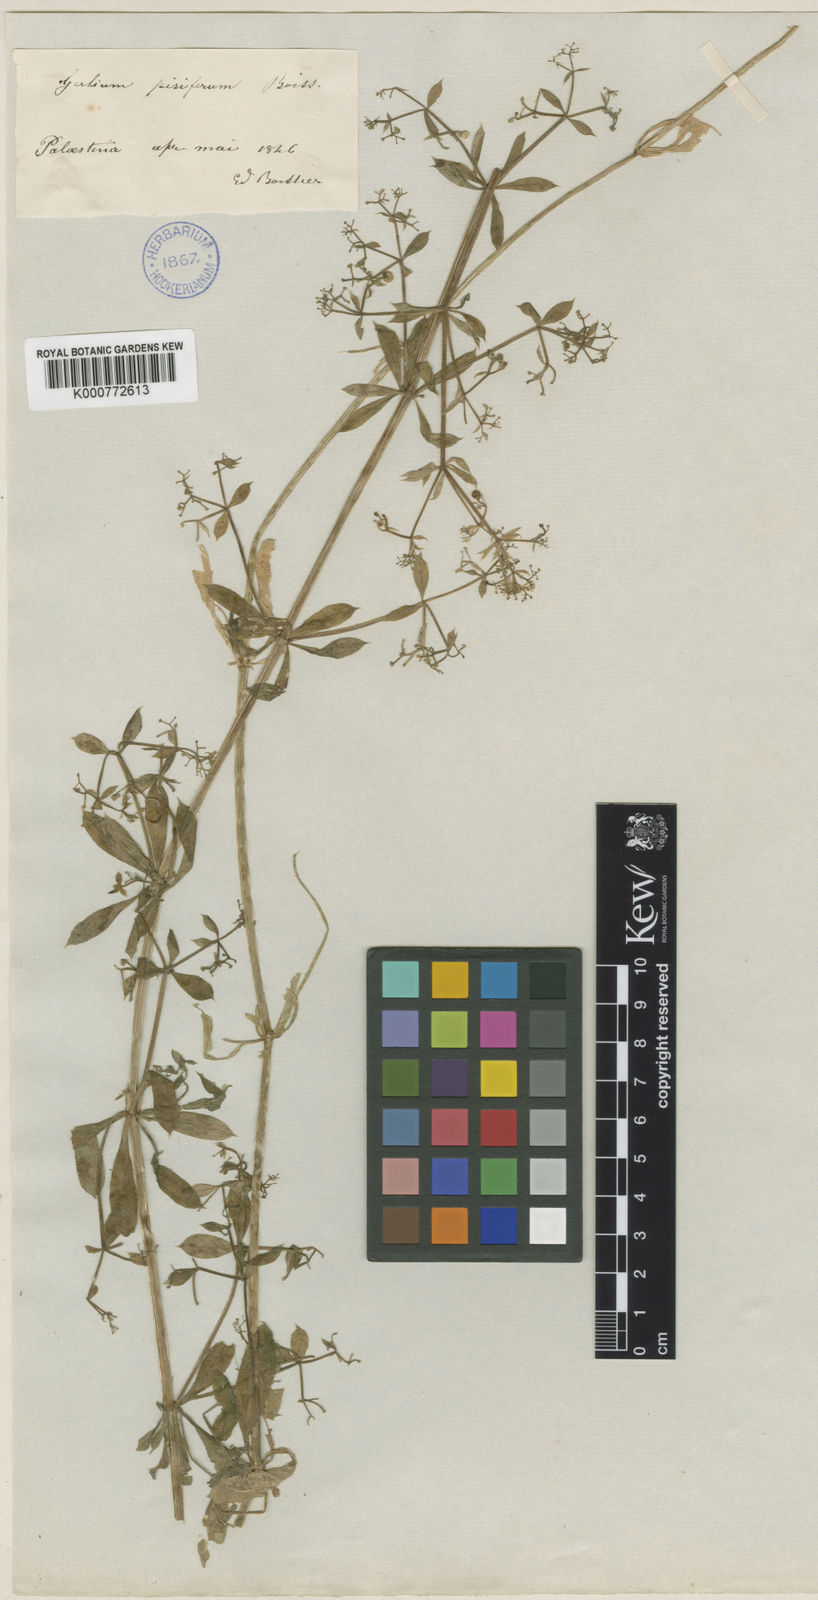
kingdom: Plantae
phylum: Tracheophyta
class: Magnoliopsida
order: Gentianales
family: Rubiaceae
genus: Galium
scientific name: Galium pisiferum
